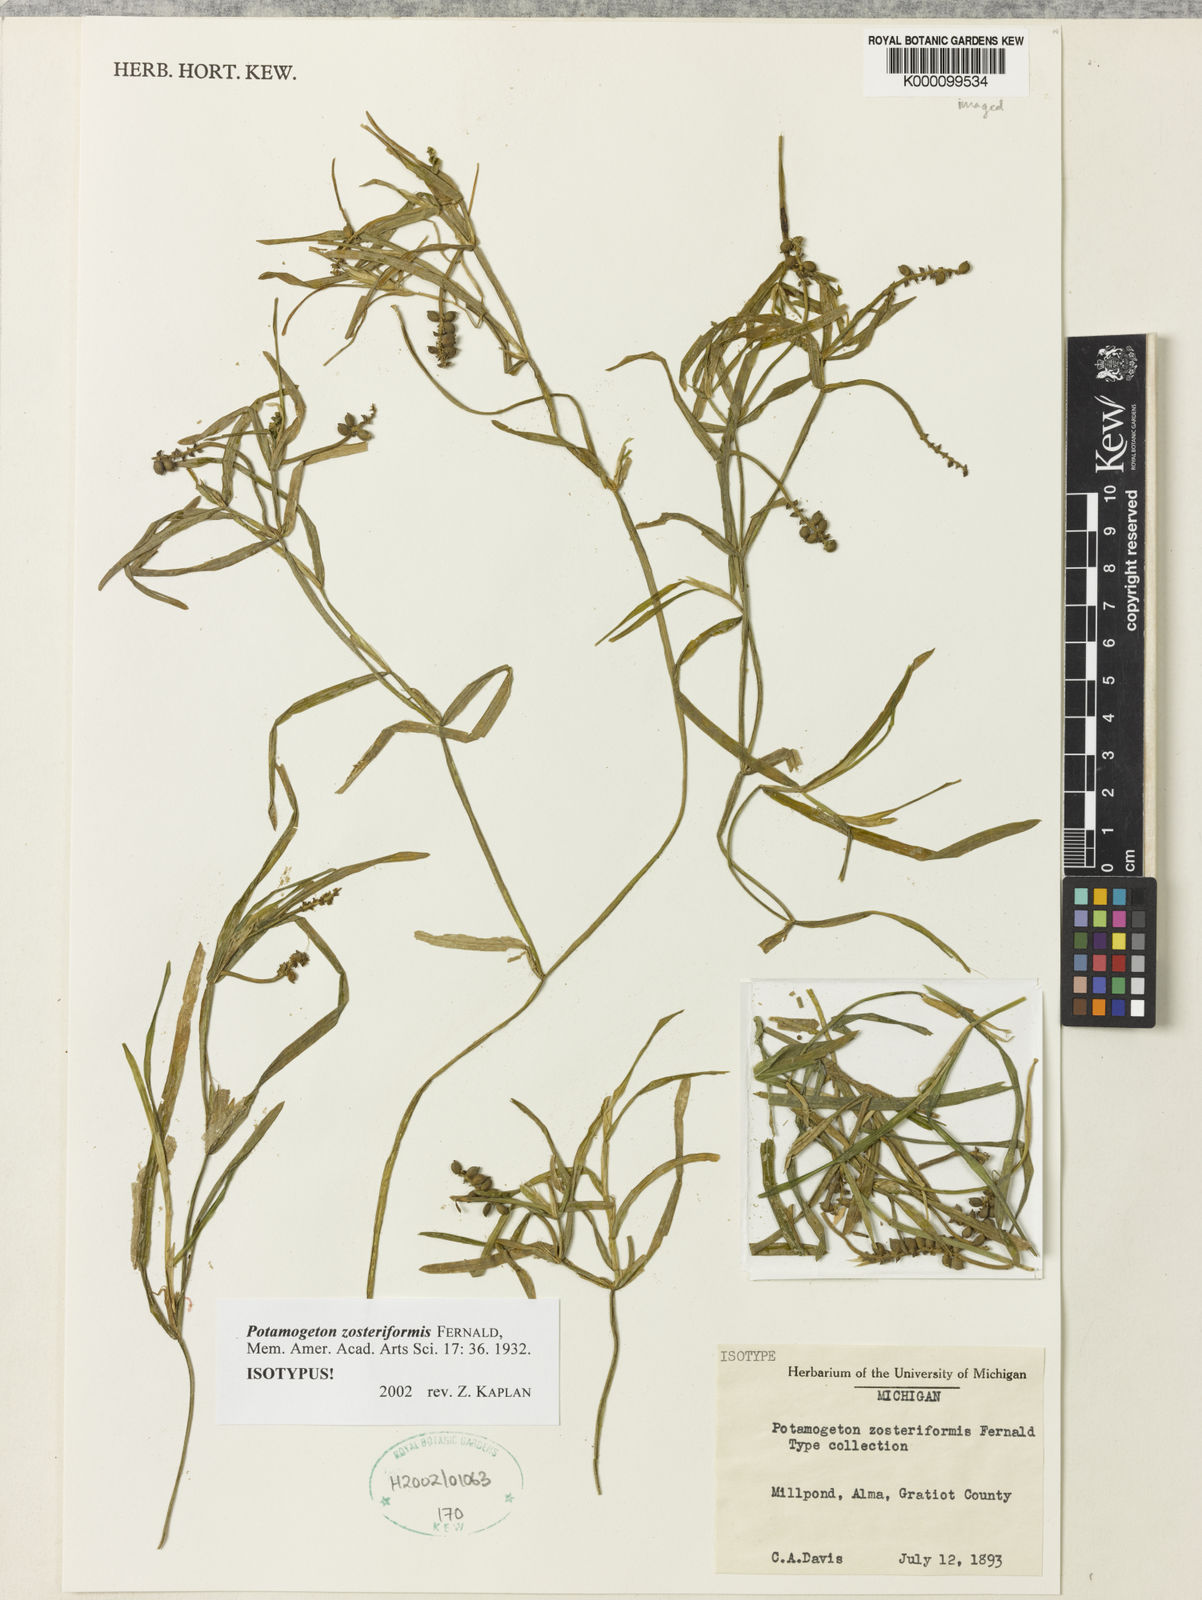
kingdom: Plantae
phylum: Tracheophyta
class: Liliopsida
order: Alismatales
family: Potamogetonaceae
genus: Potamogeton
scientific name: Potamogeton zosteriformis
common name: Eelgrass pondweed
